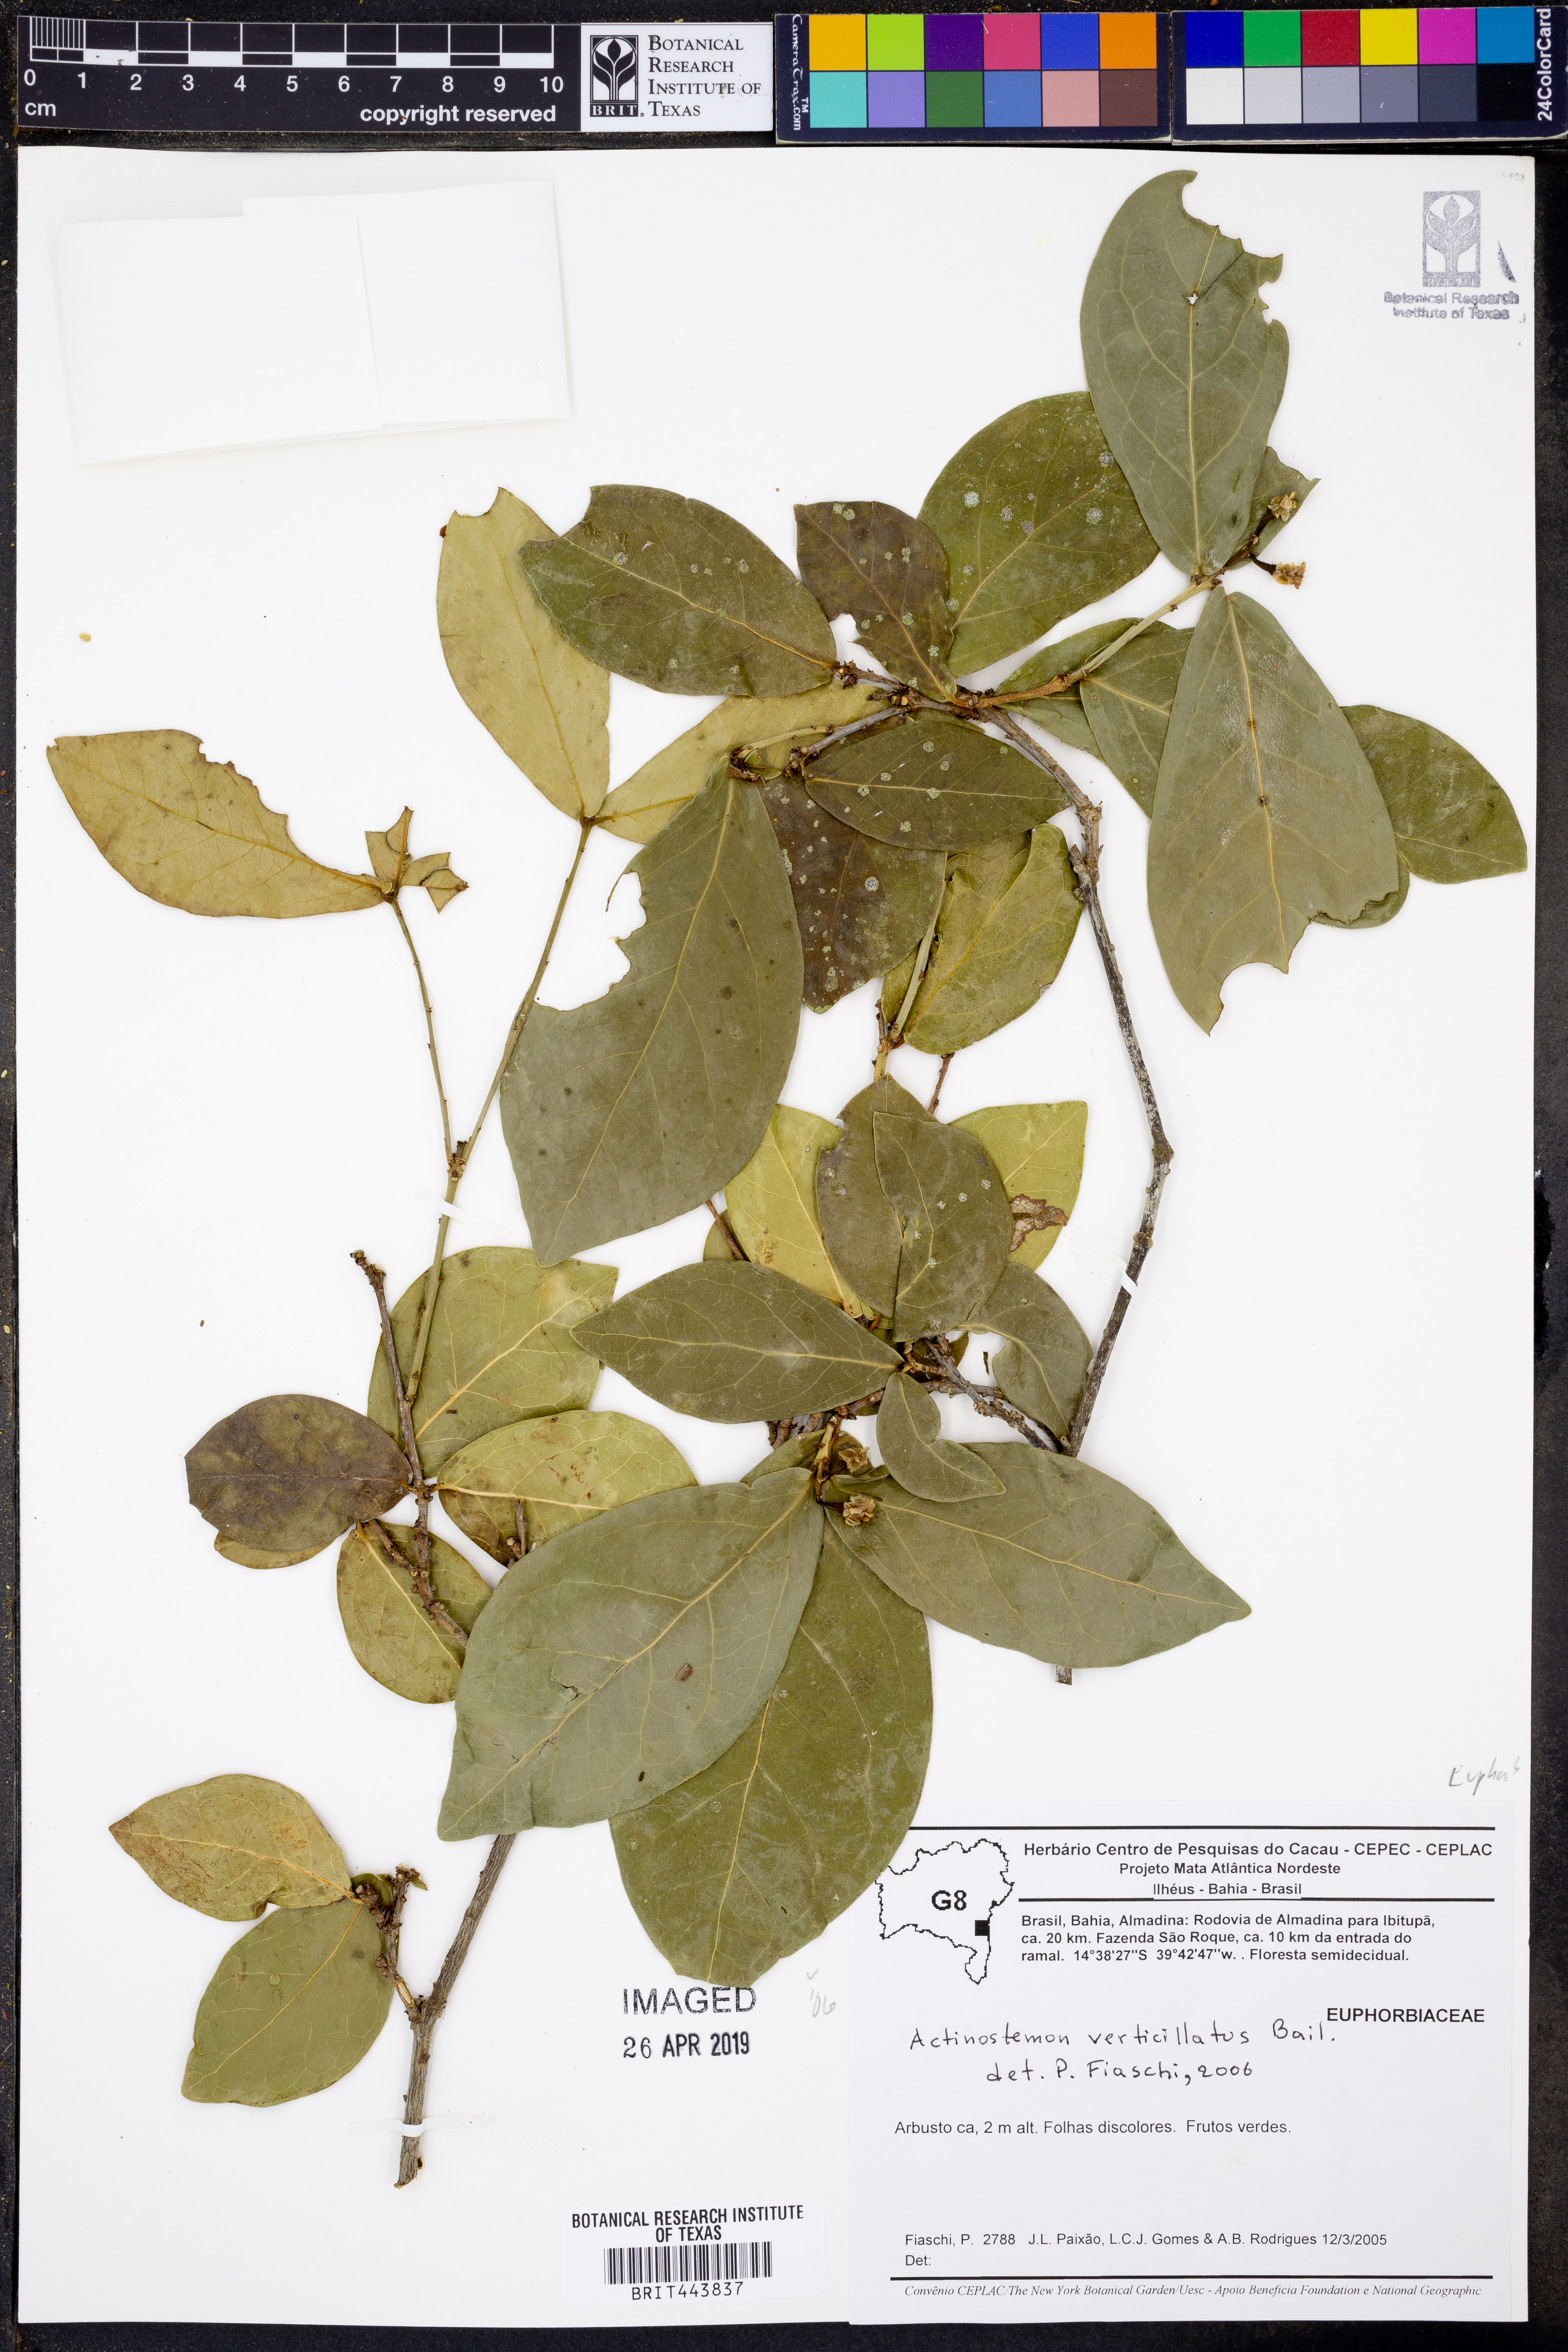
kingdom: Plantae
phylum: Tracheophyta
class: Magnoliopsida
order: Malpighiales
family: Euphorbiaceae
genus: Actinostemon
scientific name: Actinostemon verticillatus
